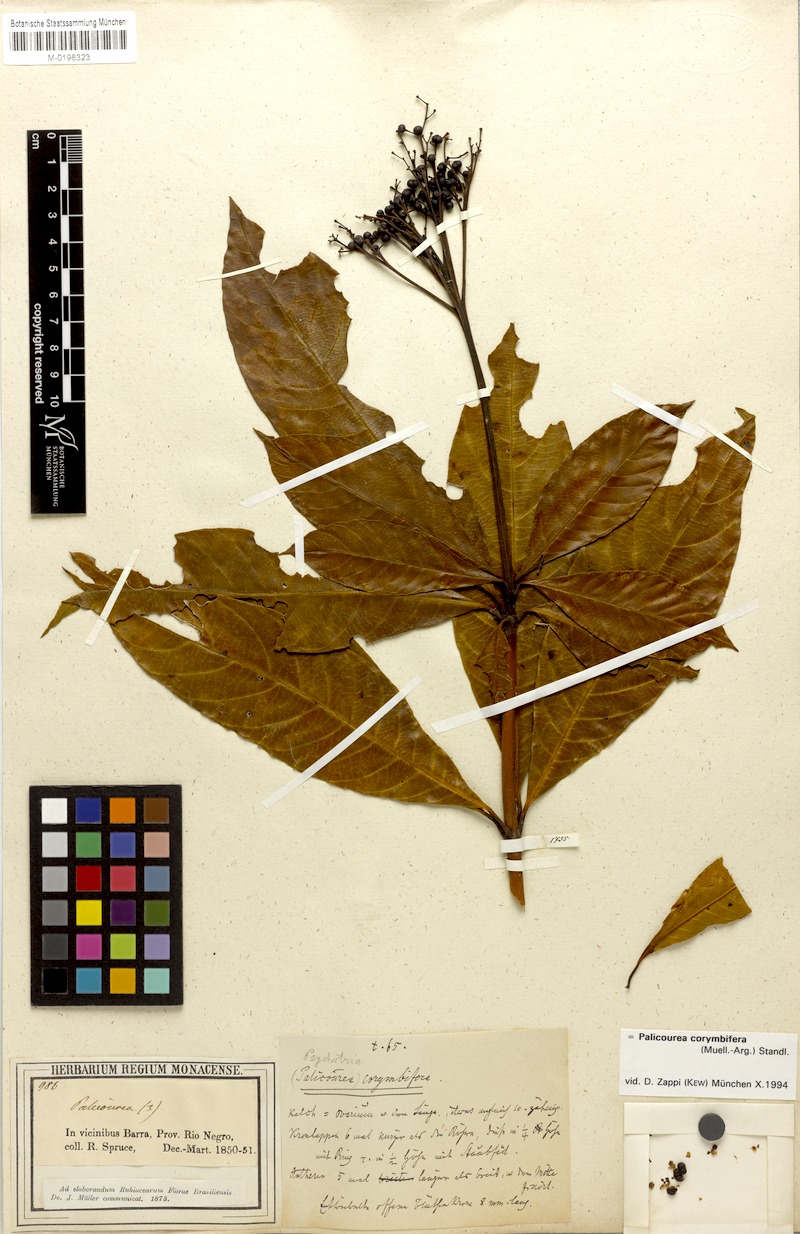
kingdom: Plantae
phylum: Tracheophyta
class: Magnoliopsida
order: Gentianales
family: Rubiaceae
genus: Palicourea
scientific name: Palicourea corymbifera
